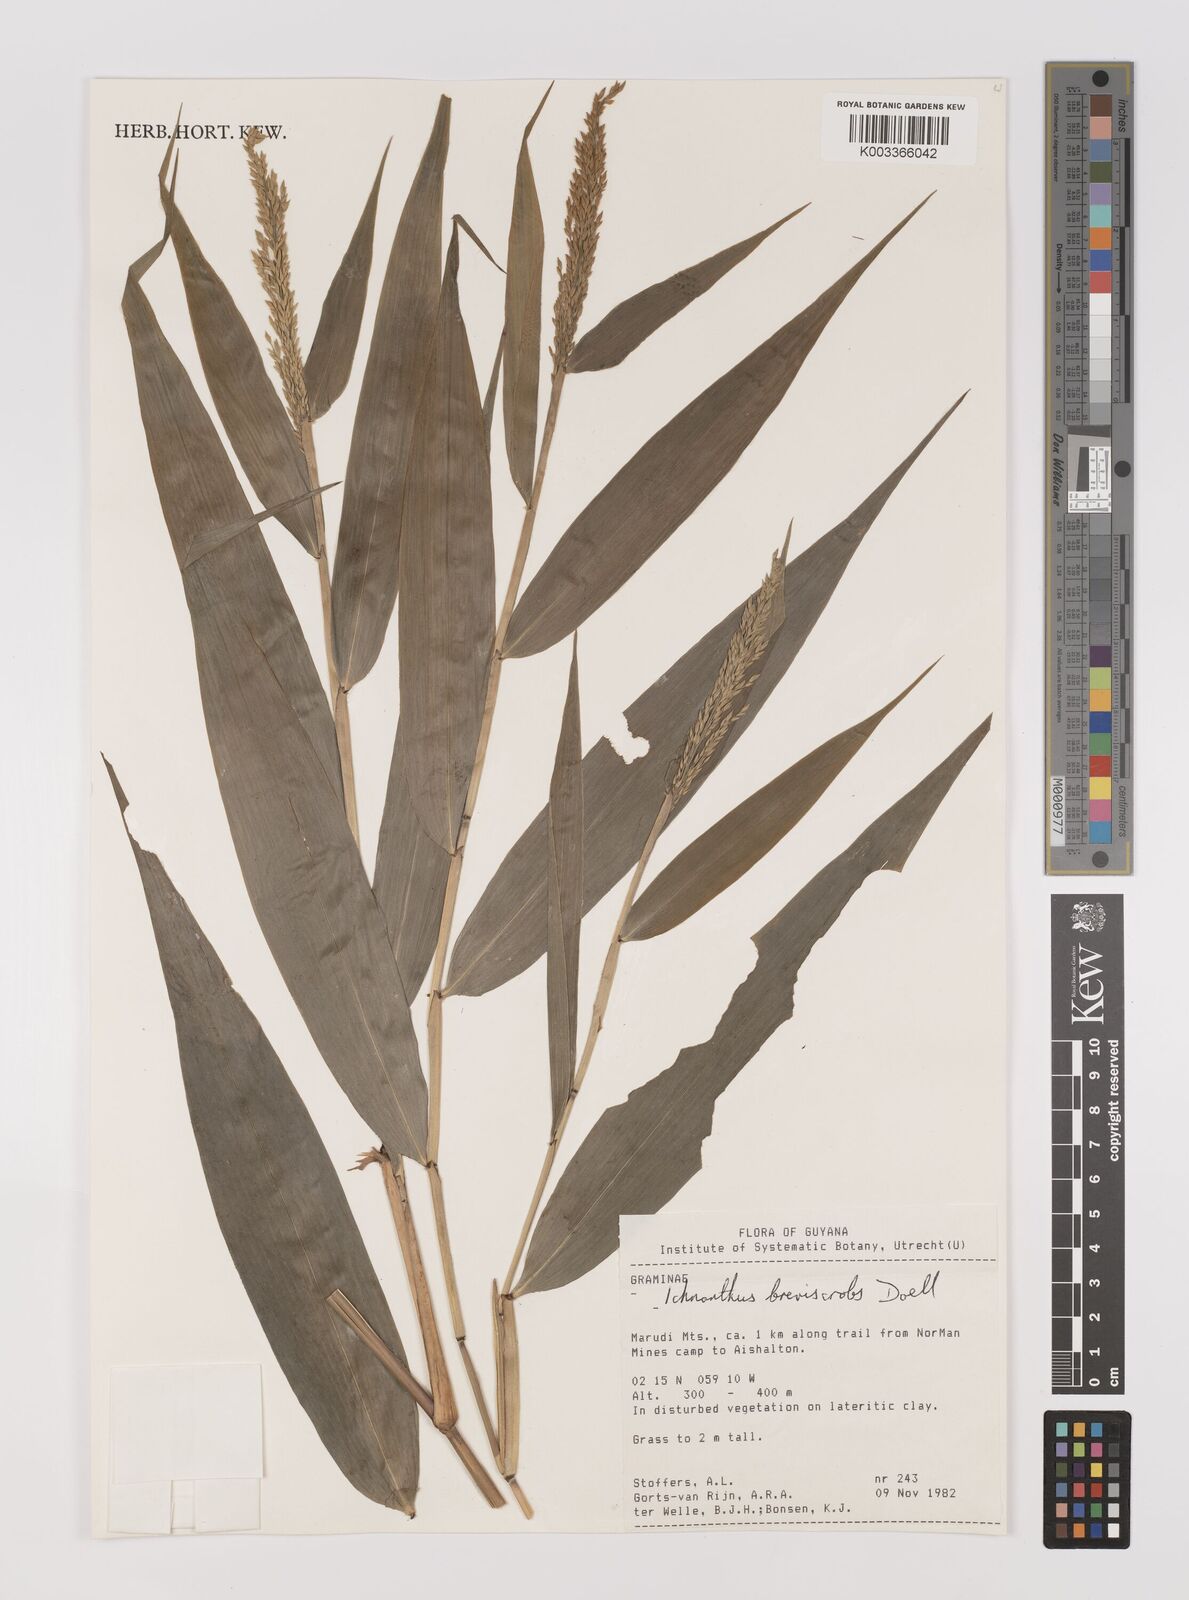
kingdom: Plantae
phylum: Tracheophyta
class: Liliopsida
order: Poales
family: Poaceae
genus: Ichnanthus
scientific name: Ichnanthus breviscrobs
